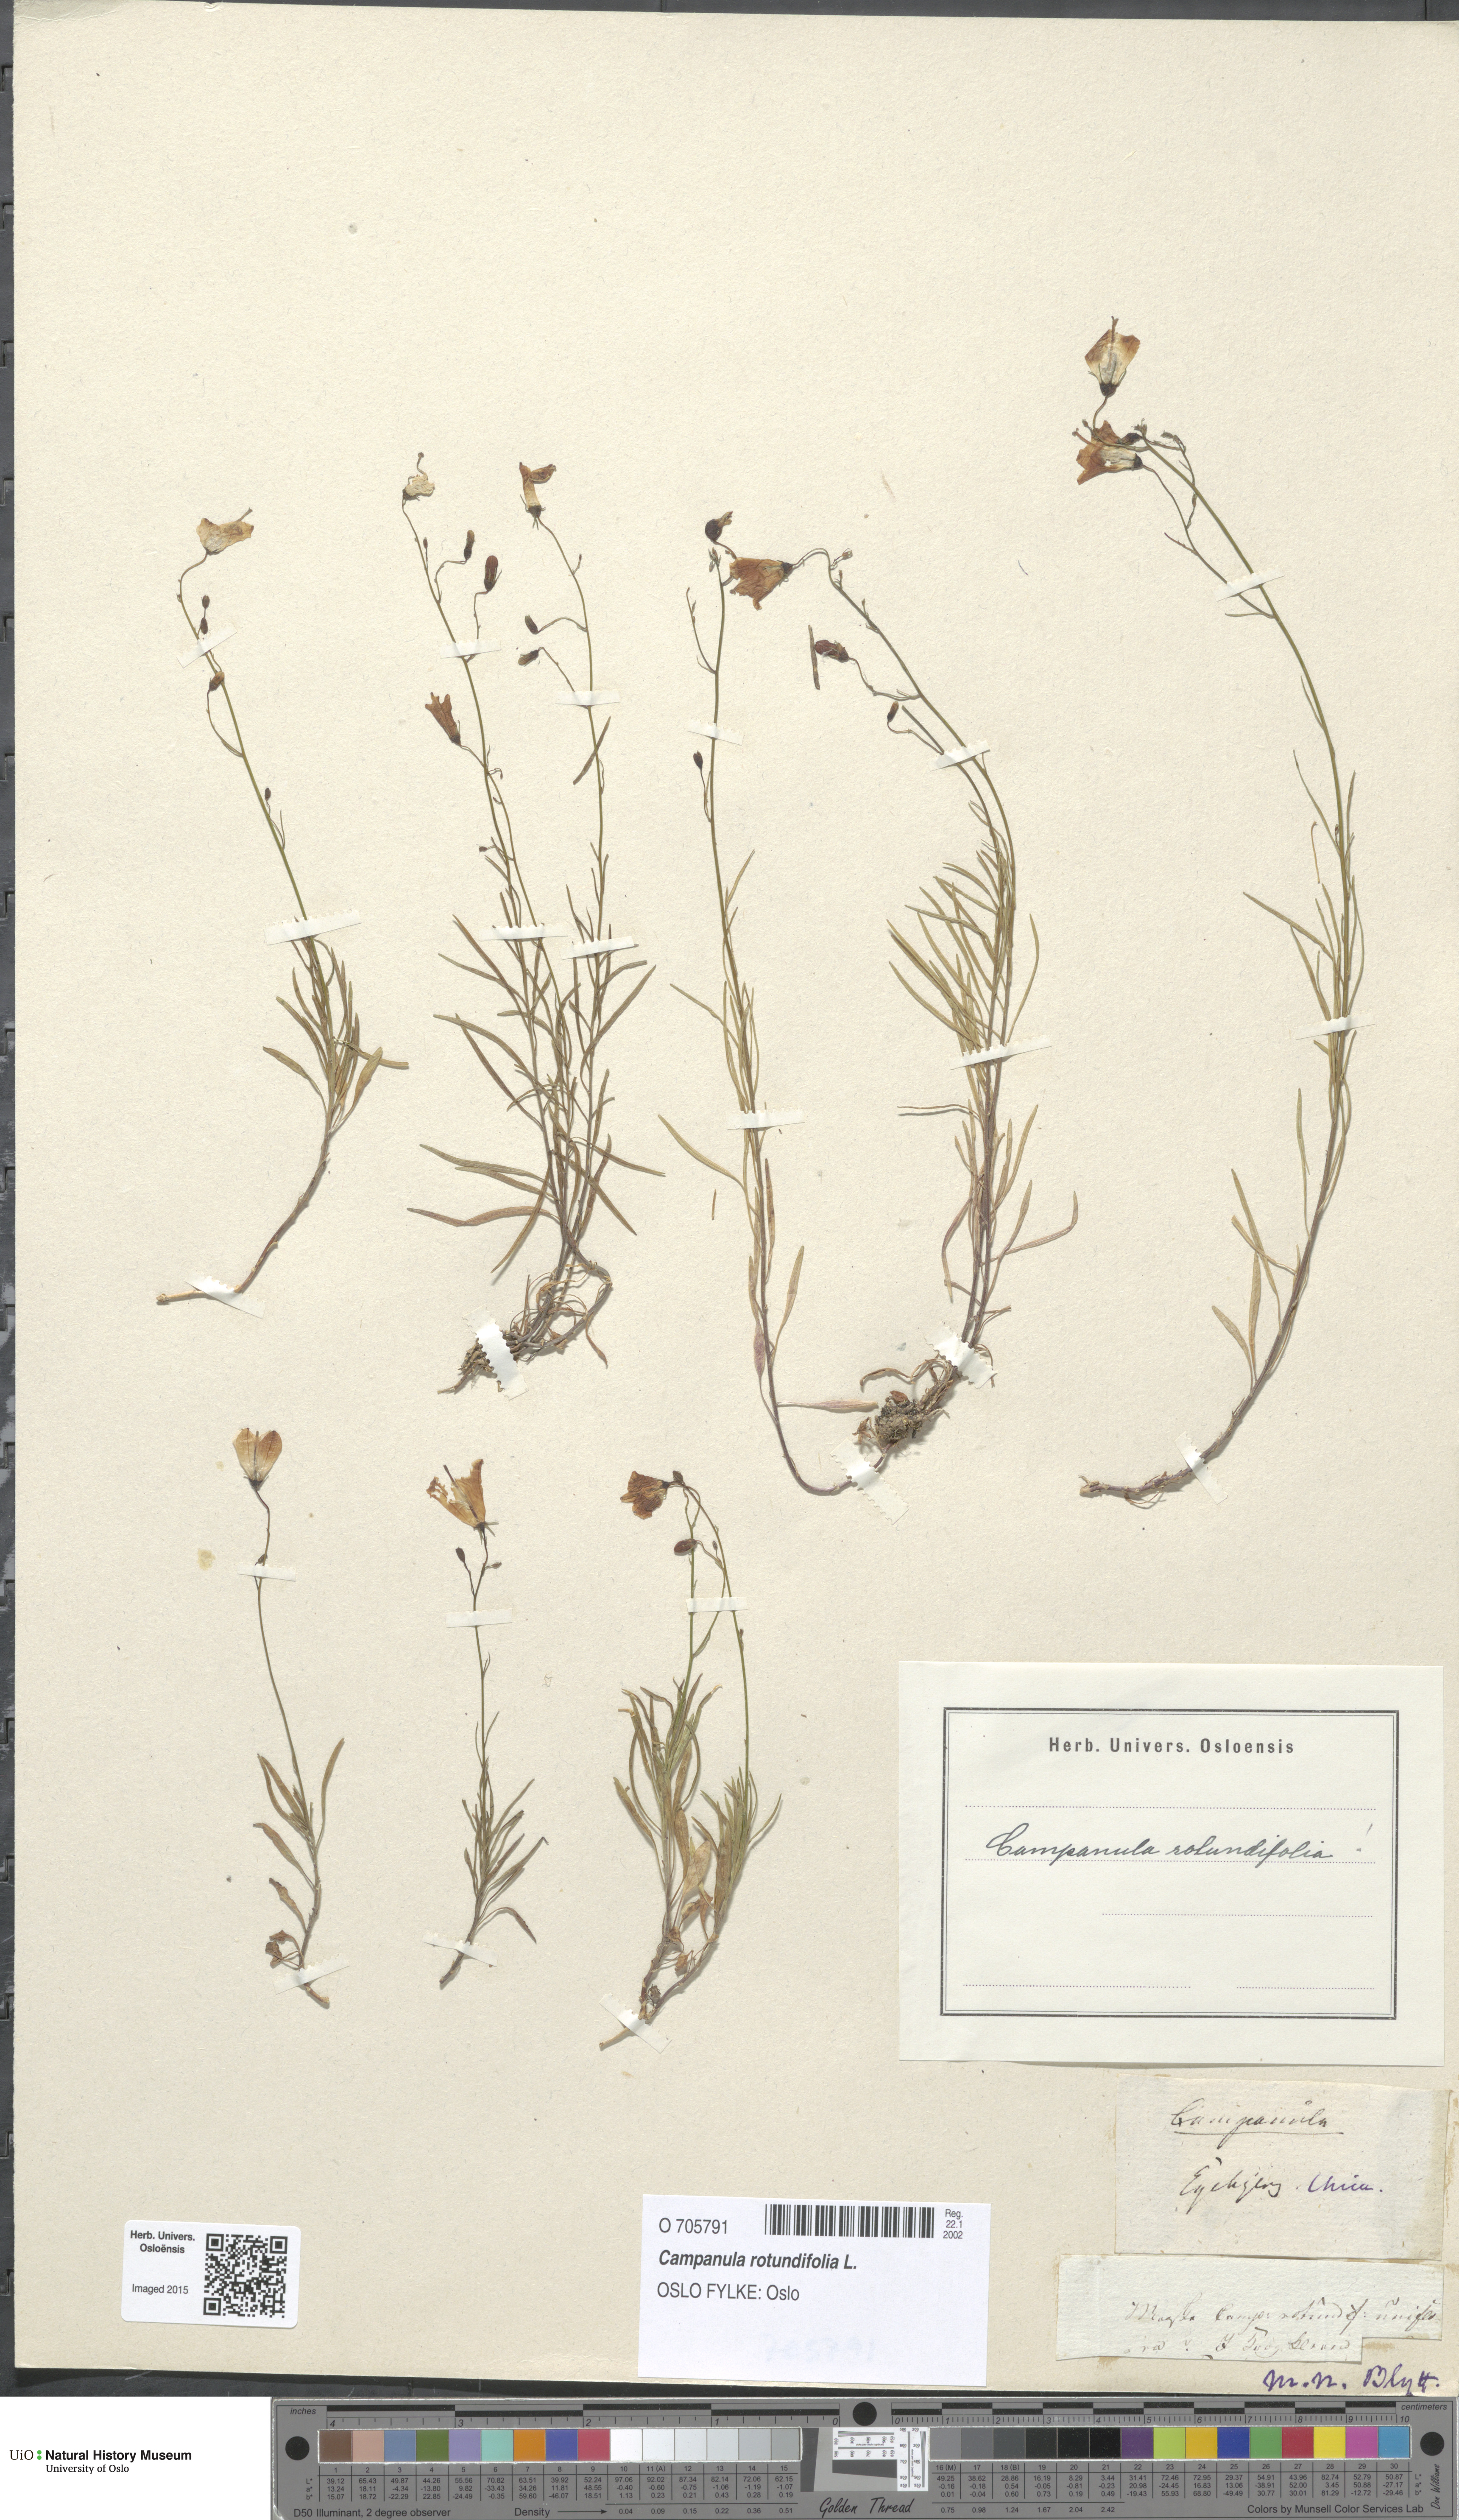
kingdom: Plantae
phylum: Tracheophyta
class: Magnoliopsida
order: Asterales
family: Campanulaceae
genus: Campanula
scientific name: Campanula rotundifolia
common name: Harebell
